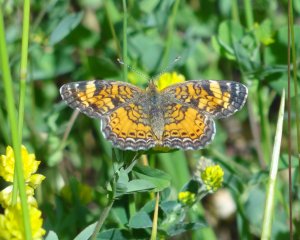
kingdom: Animalia
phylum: Arthropoda
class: Insecta
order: Lepidoptera
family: Nymphalidae
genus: Phyciodes
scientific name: Phyciodes tharos
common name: Pearl Crescent
